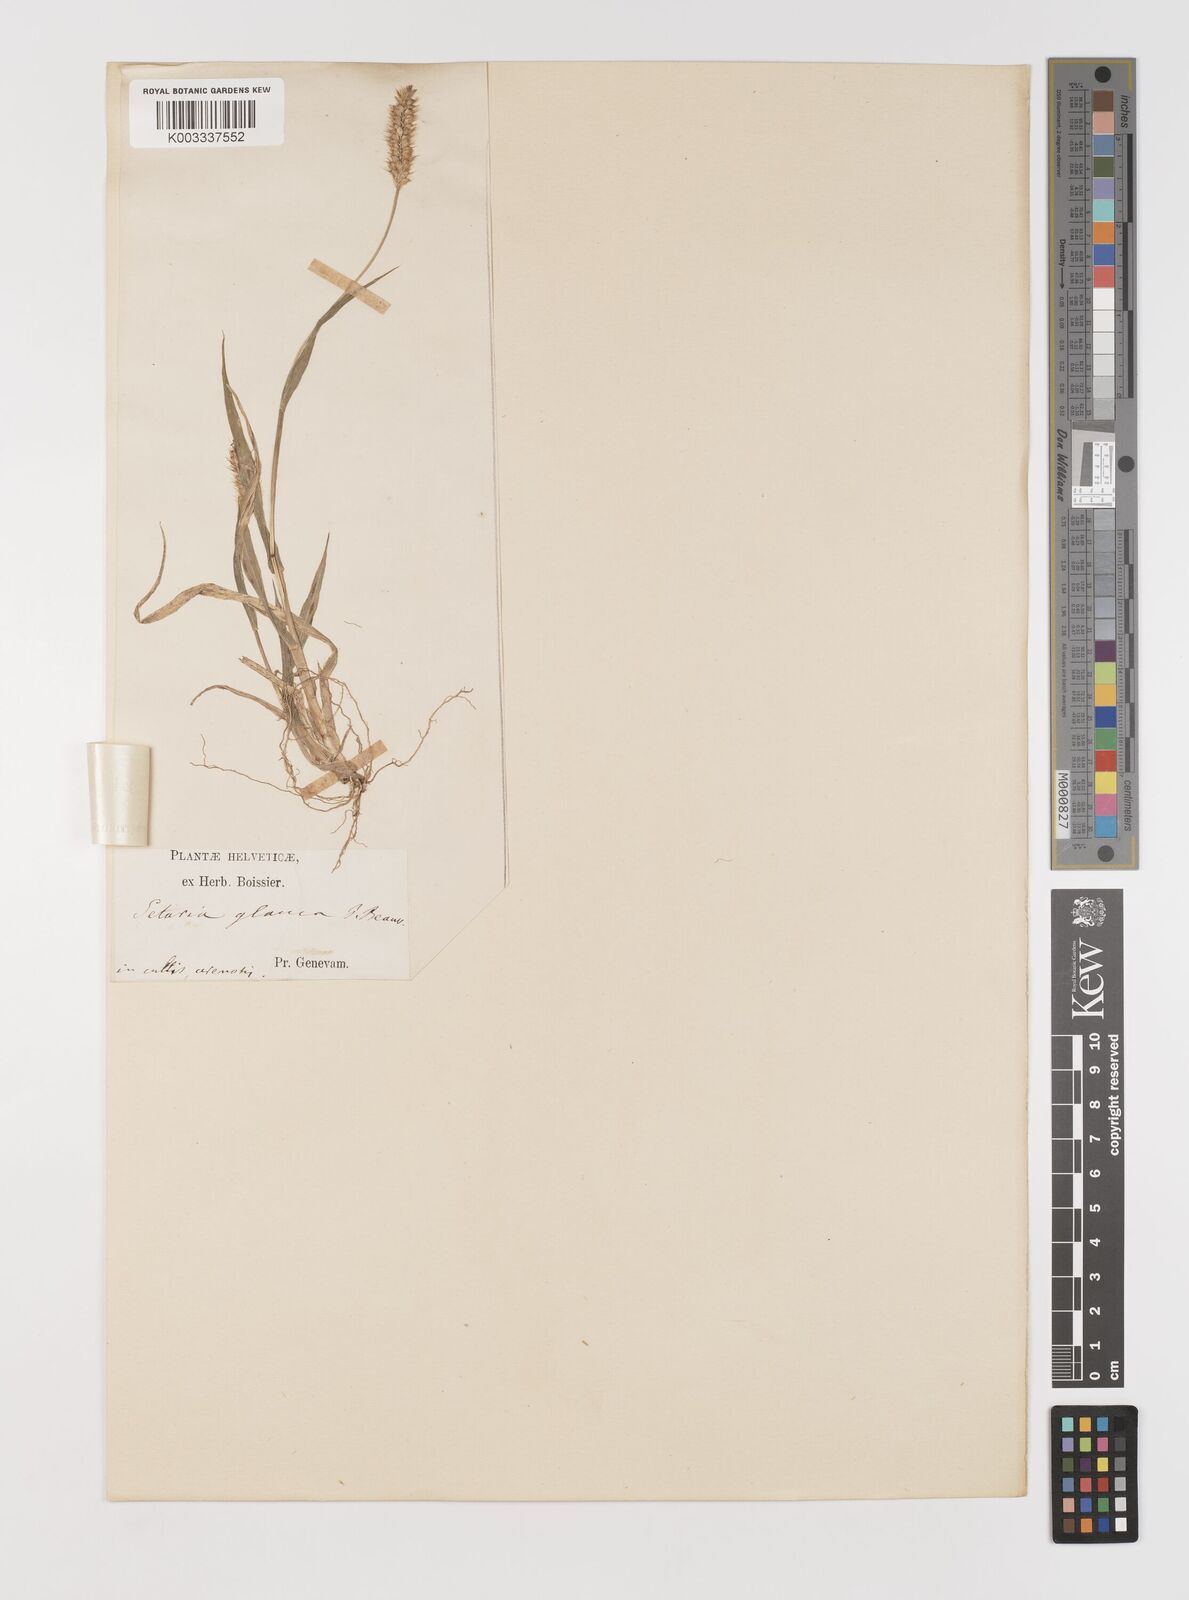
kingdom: Plantae
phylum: Tracheophyta
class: Liliopsida
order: Poales
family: Poaceae
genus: Setaria
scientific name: Setaria pumila
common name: Yellow bristle-grass
